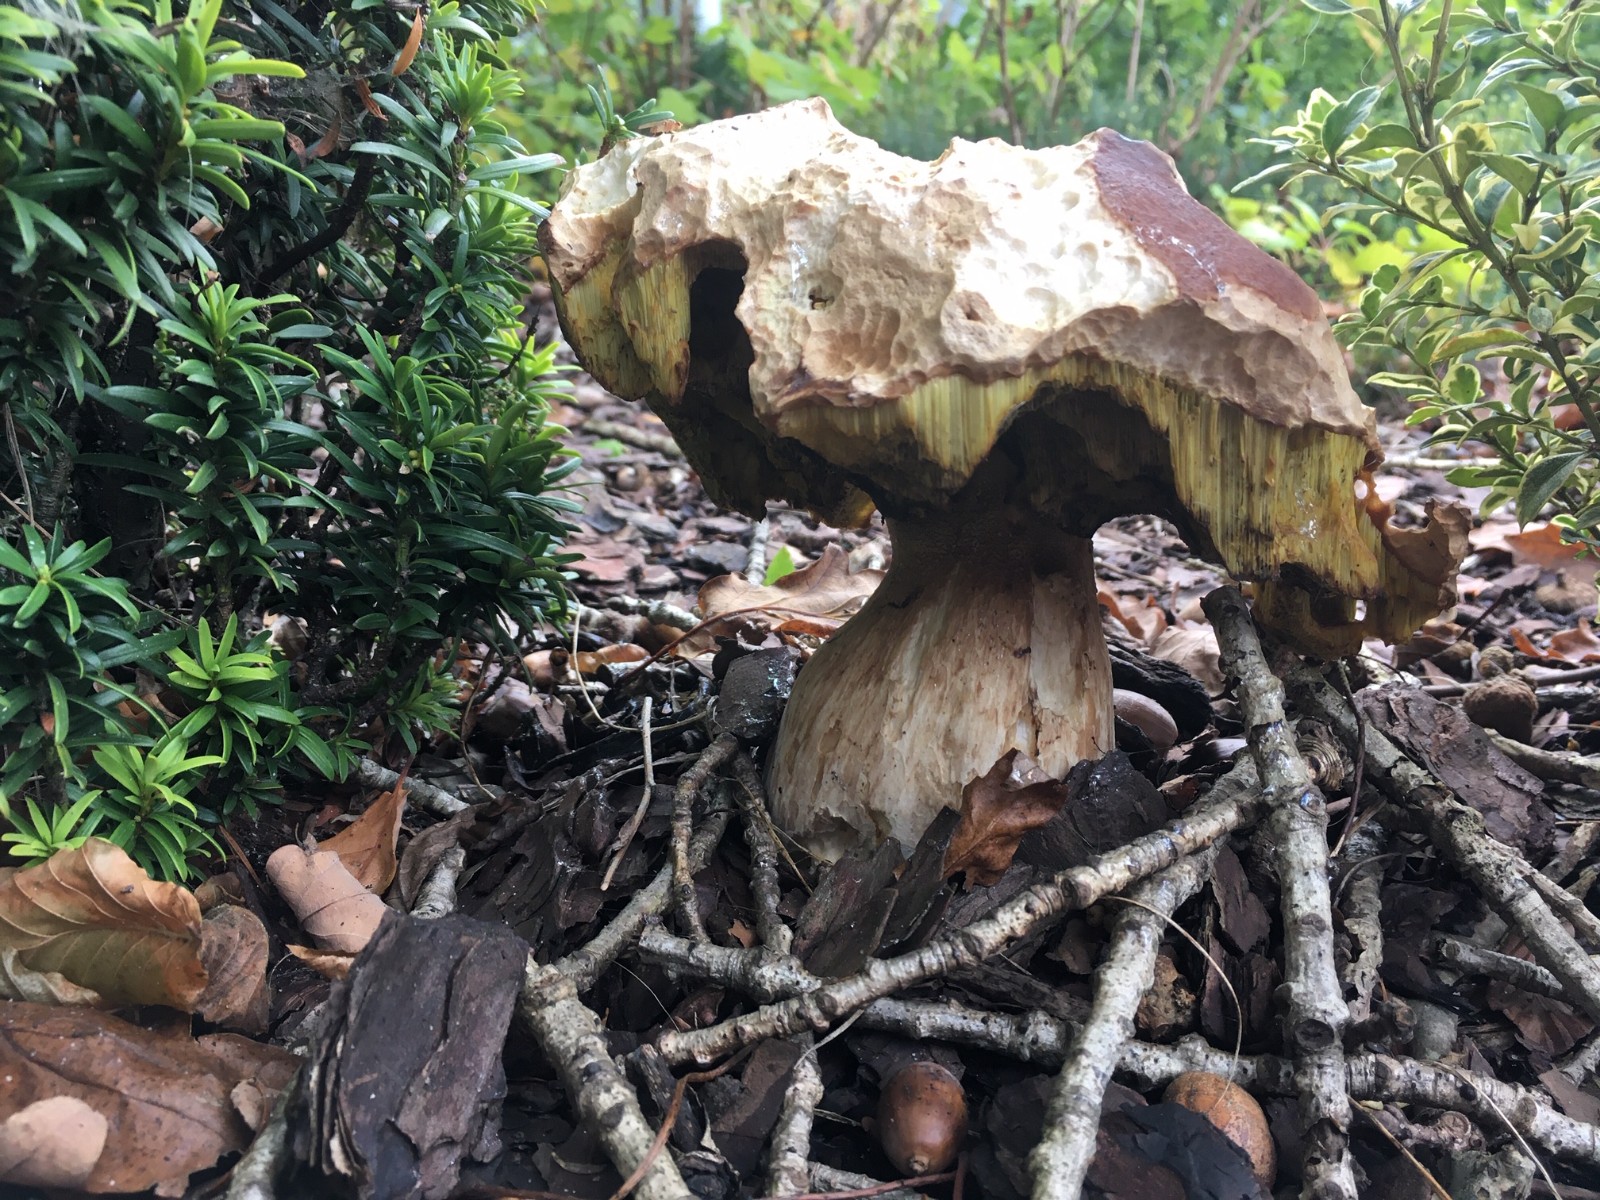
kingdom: Fungi
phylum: Basidiomycota
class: Agaricomycetes
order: Boletales
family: Boletaceae
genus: Boletus
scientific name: Boletus edulis
